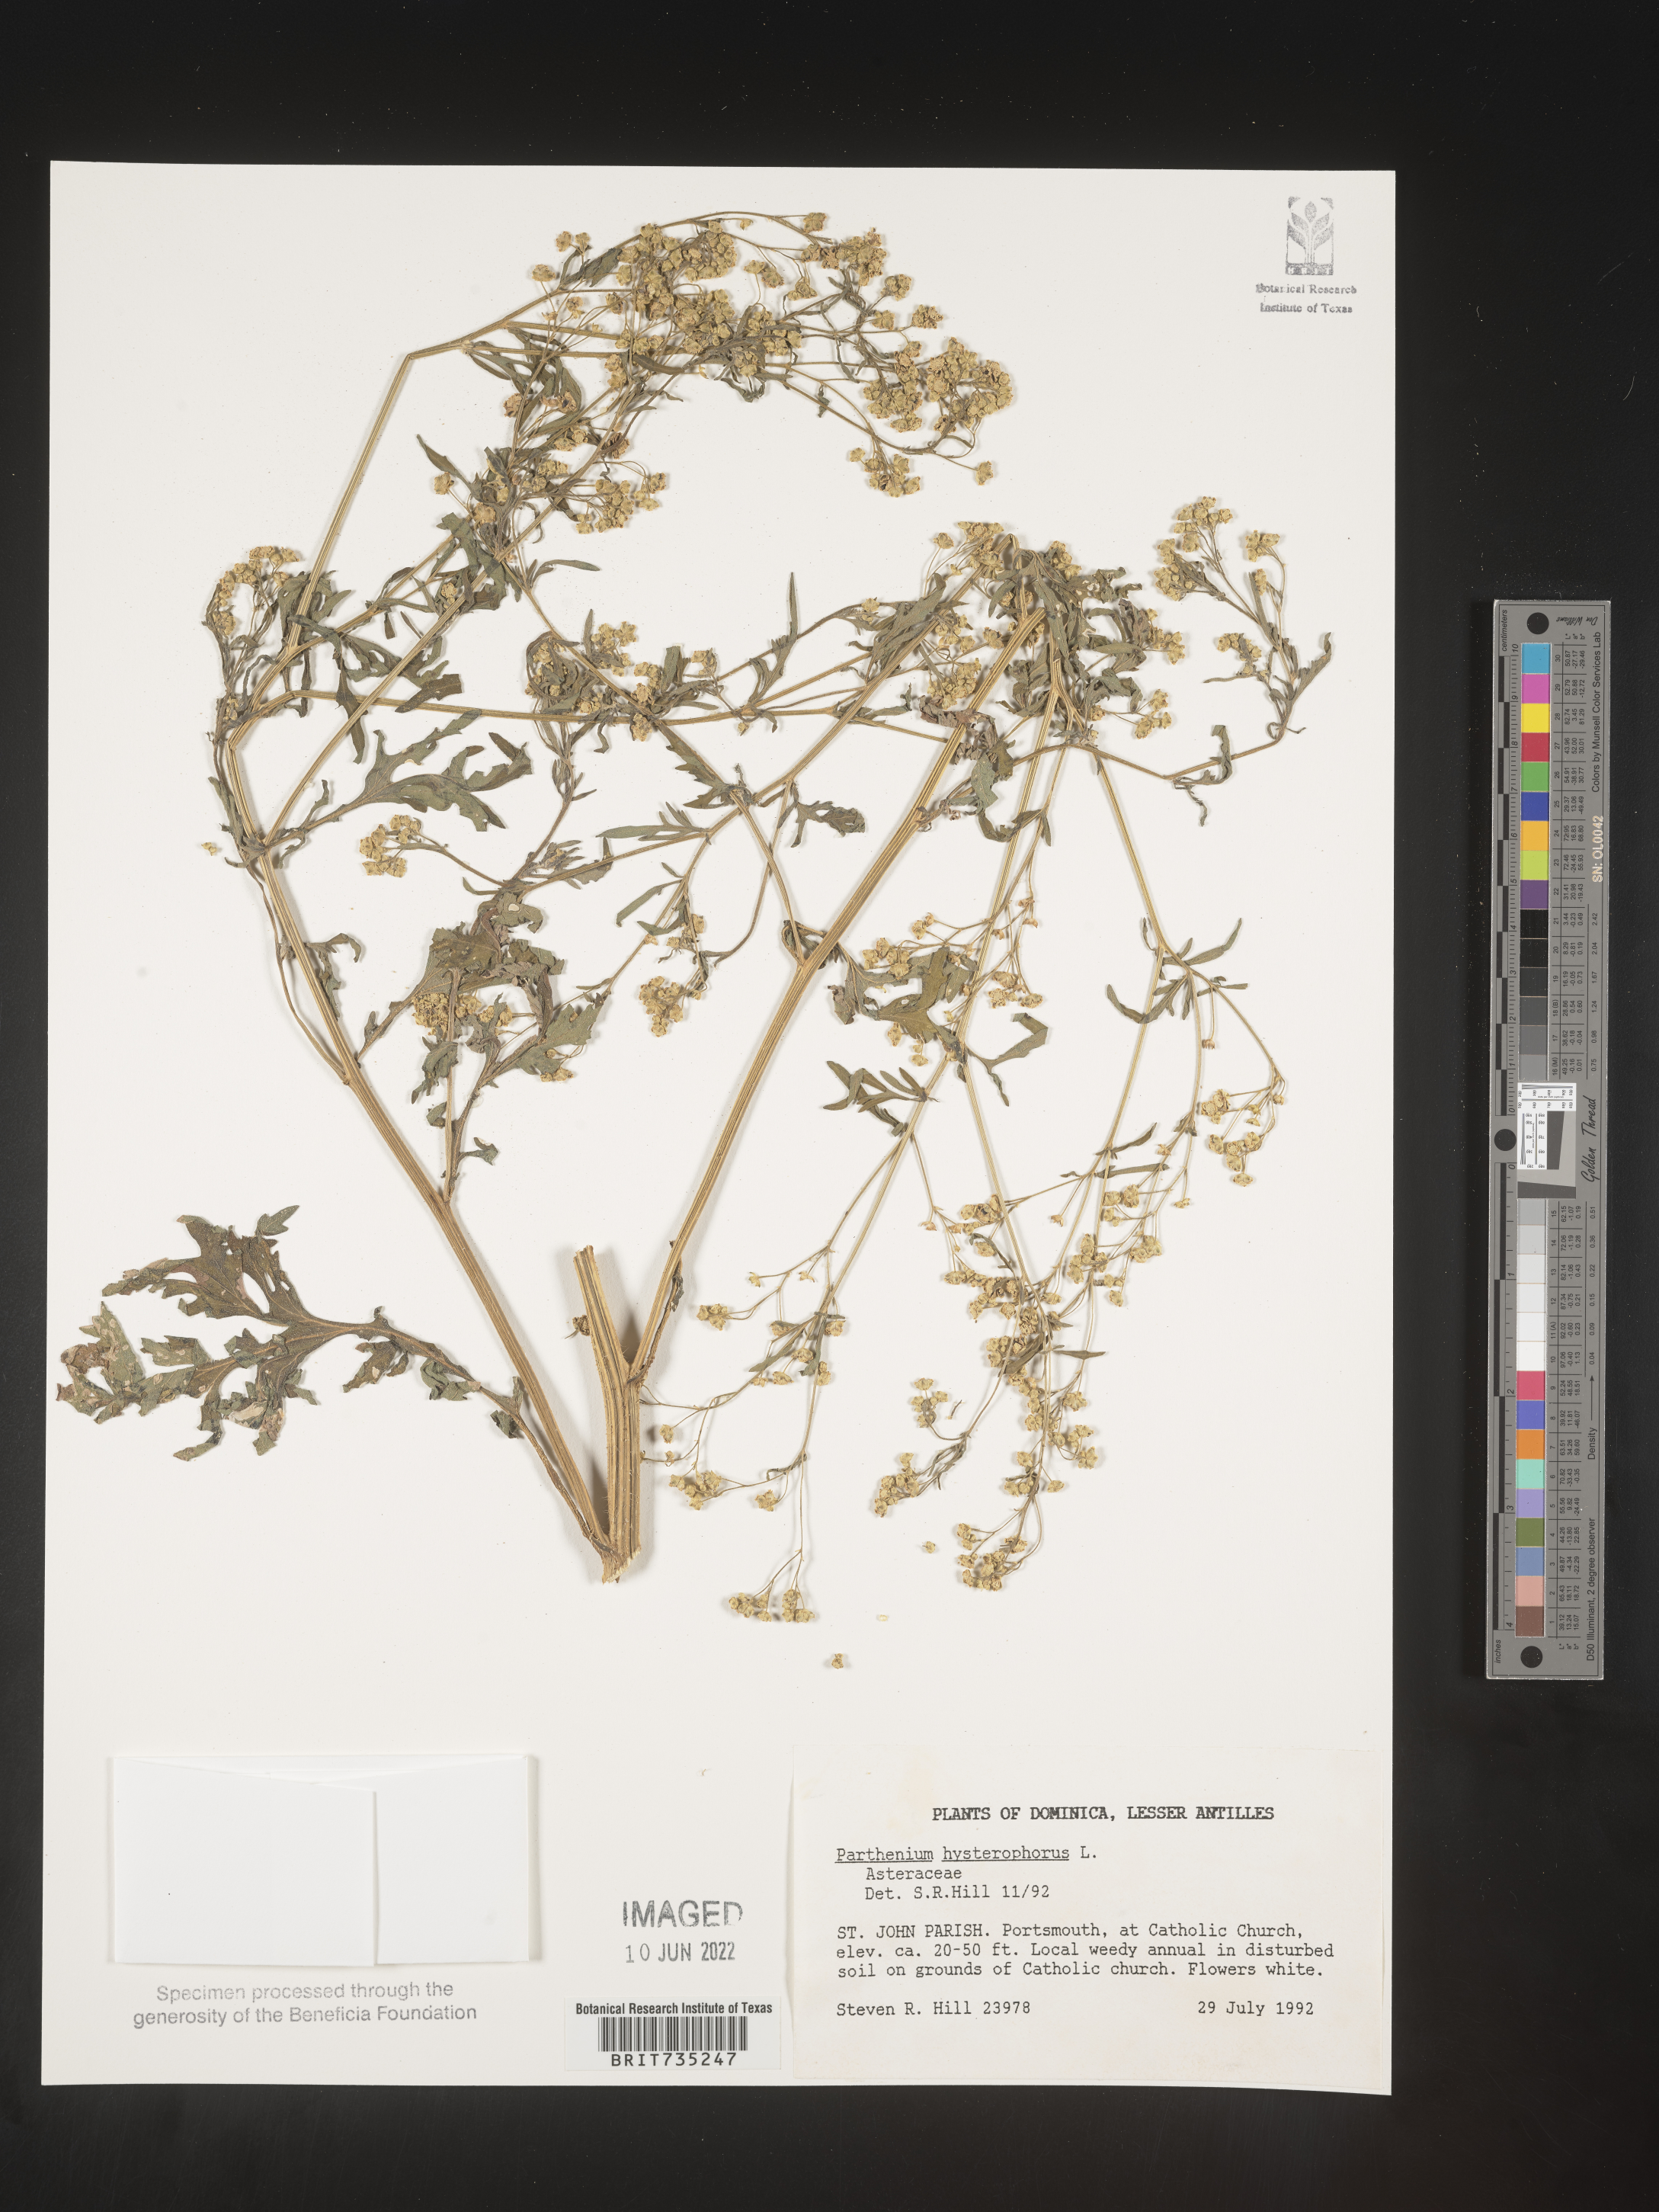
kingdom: Plantae
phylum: Tracheophyta
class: Magnoliopsida
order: Asterales
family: Asteraceae
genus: Parthenium
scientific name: Parthenium
